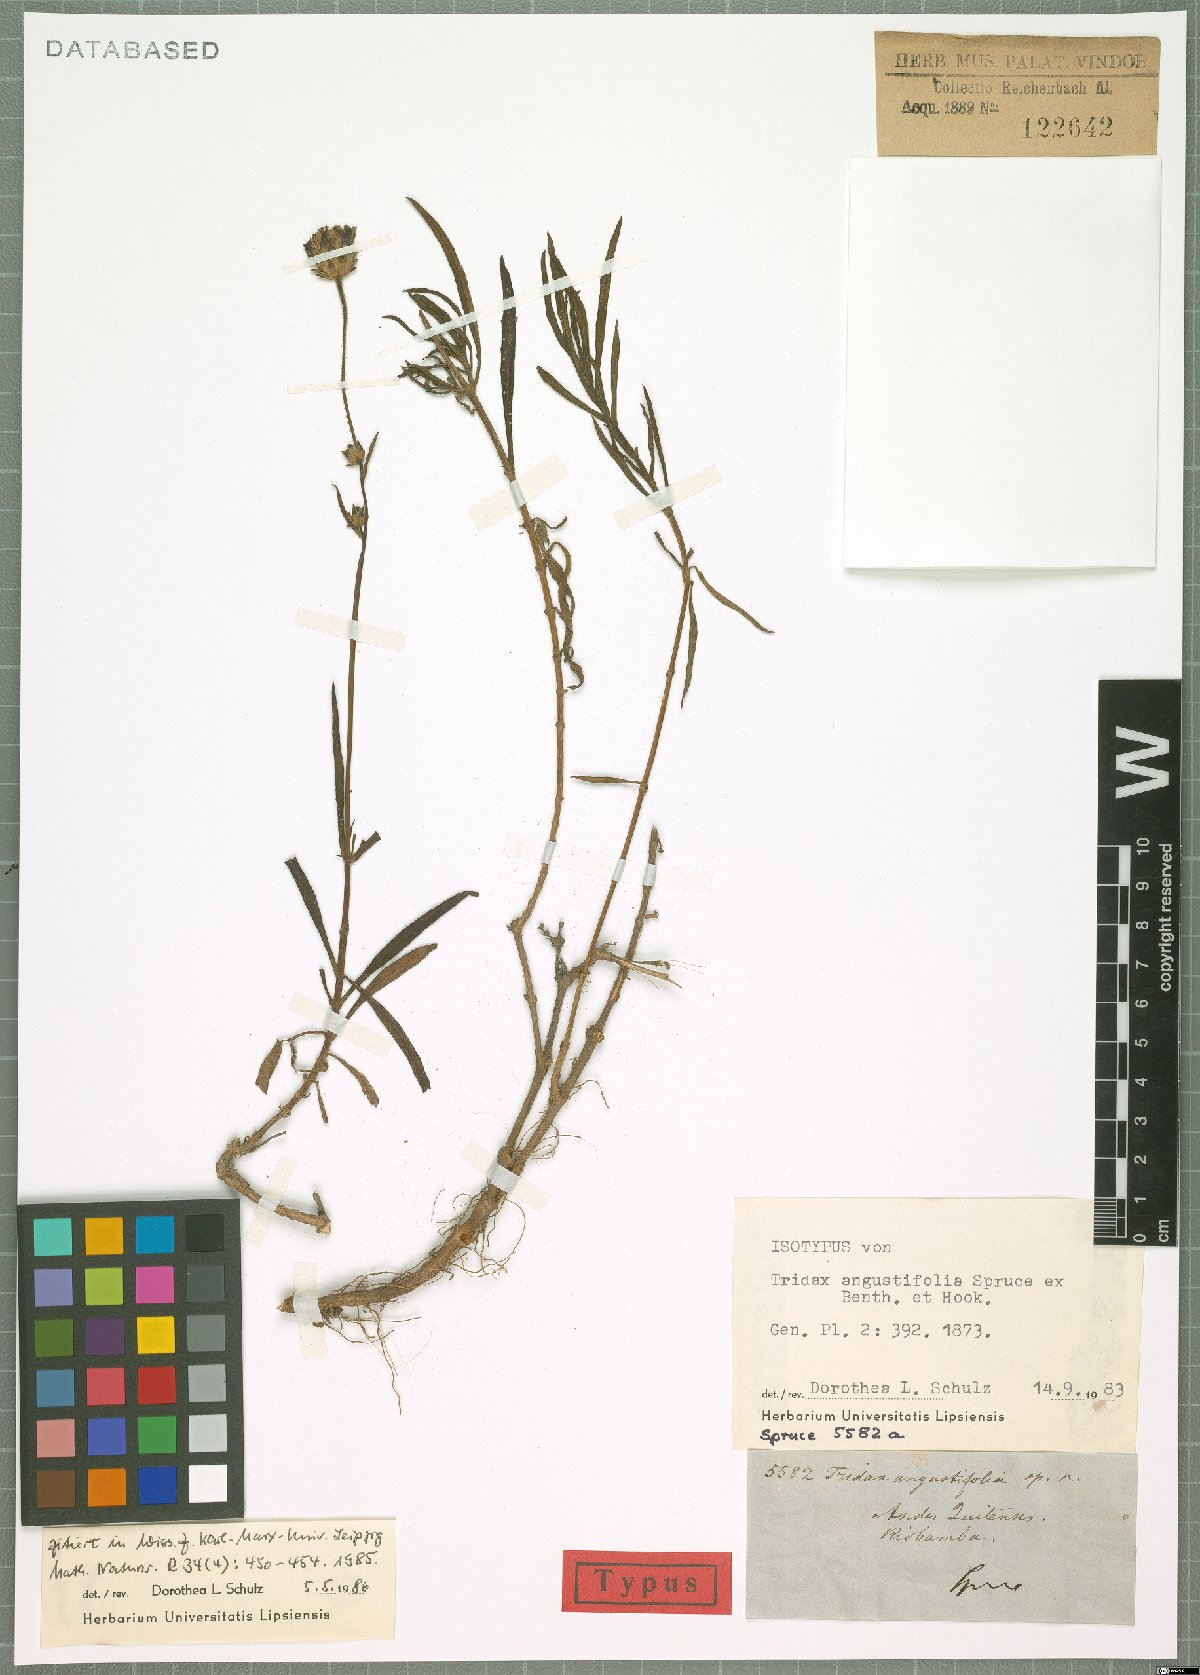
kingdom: Plantae
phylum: Tracheophyta
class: Magnoliopsida
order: Asterales
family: Asteraceae
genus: Tridax
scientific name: Tridax angustifolia
